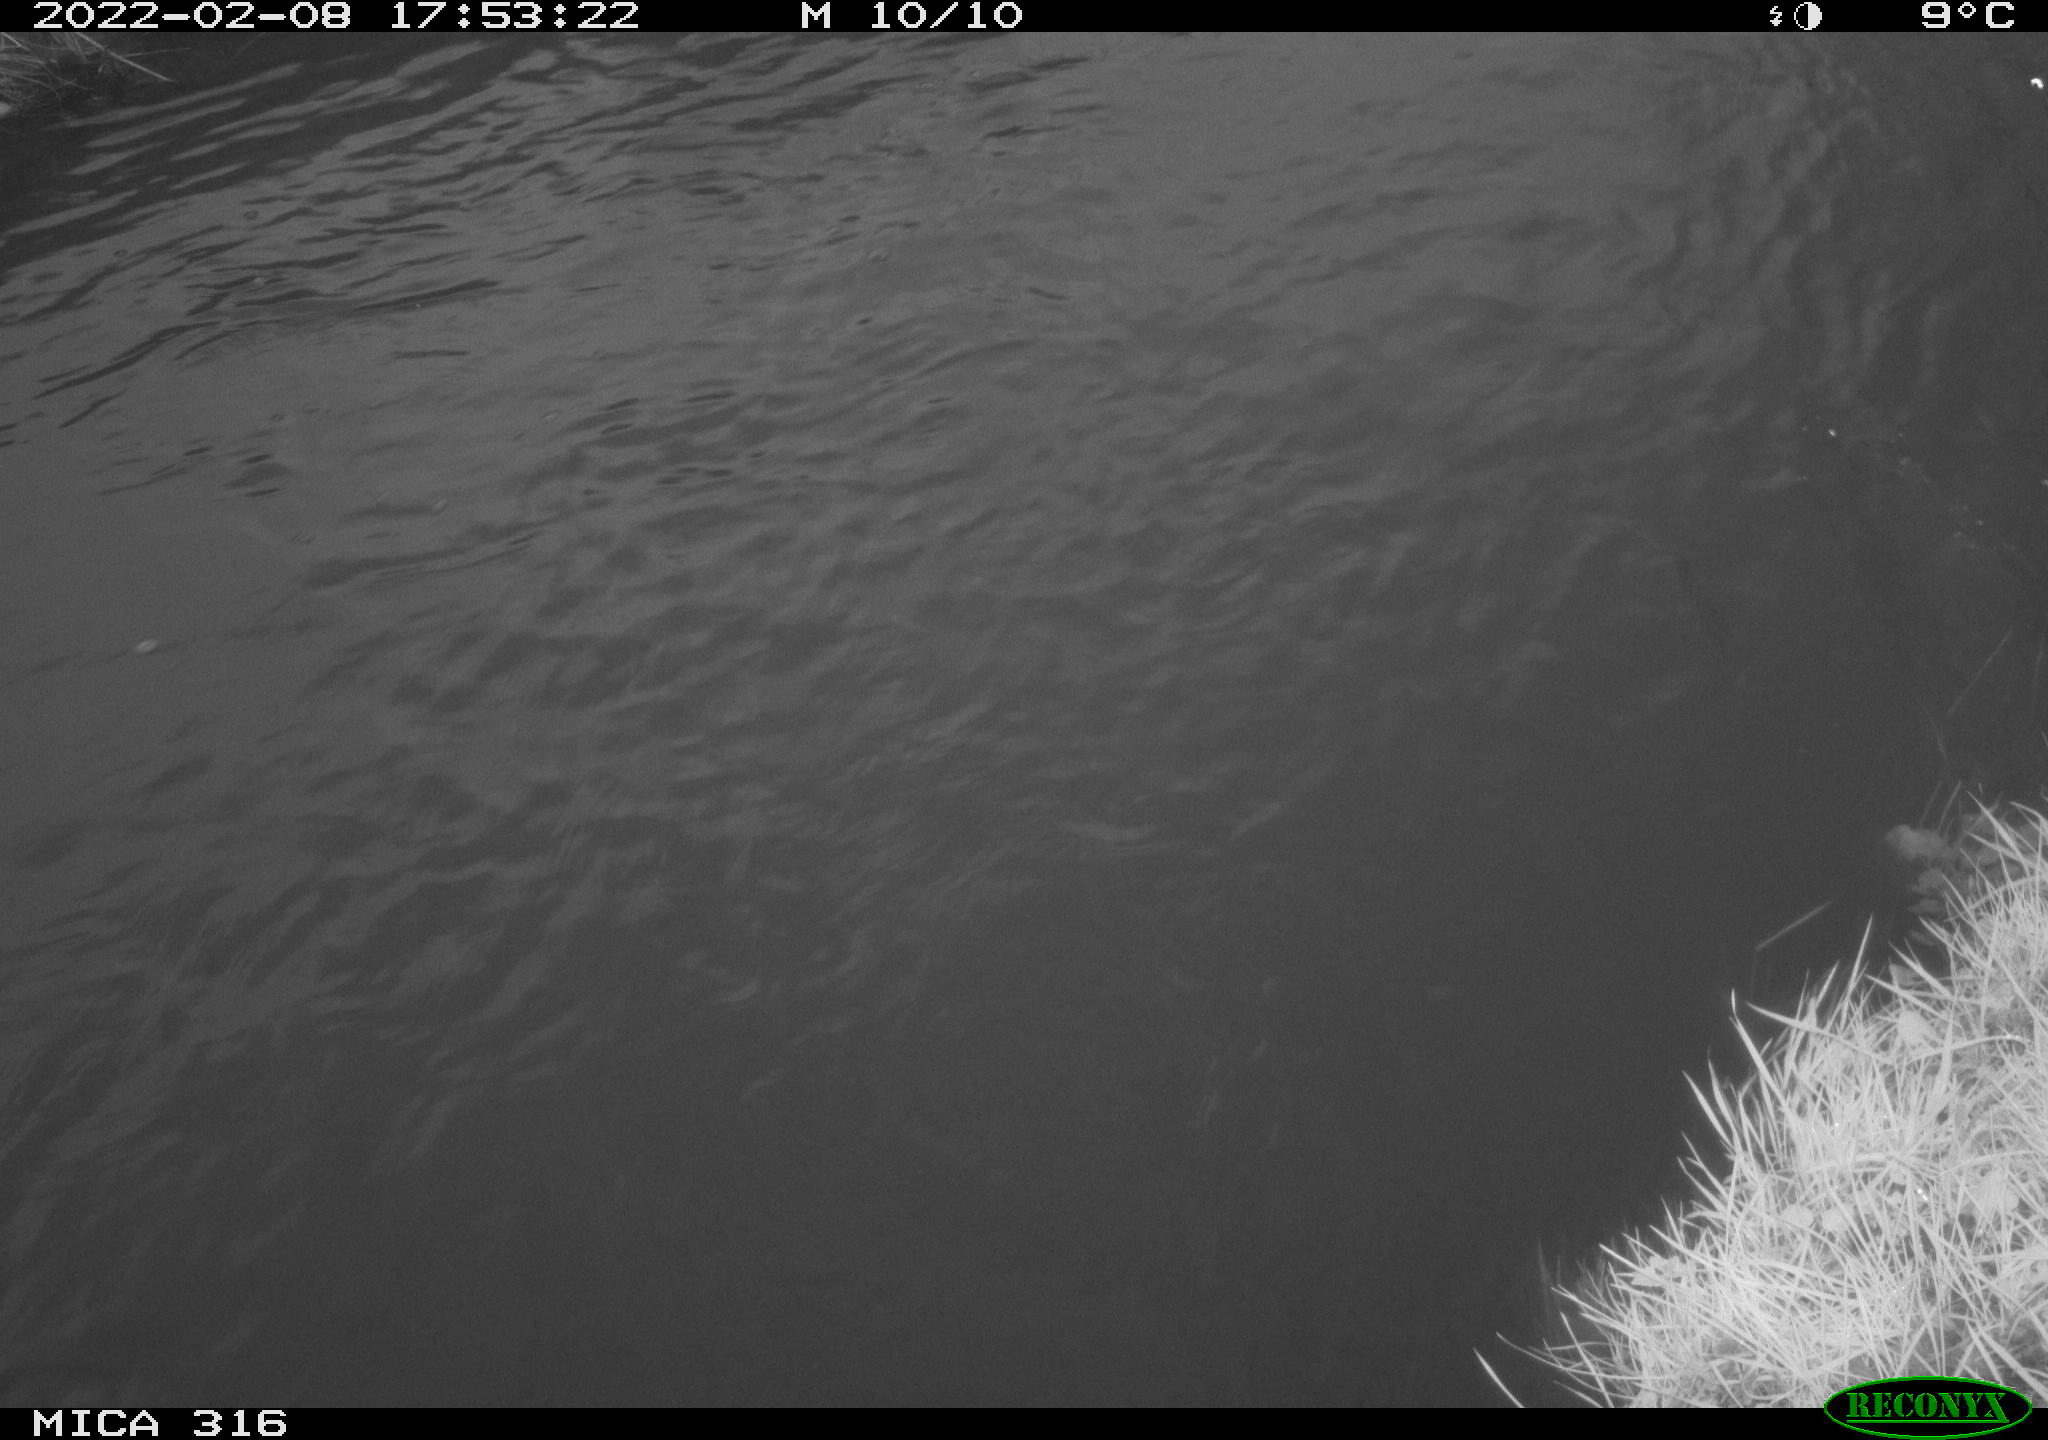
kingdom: Animalia
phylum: Chordata
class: Aves
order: Anseriformes
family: Anatidae
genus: Anas
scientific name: Anas platyrhynchos
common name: Mallard
